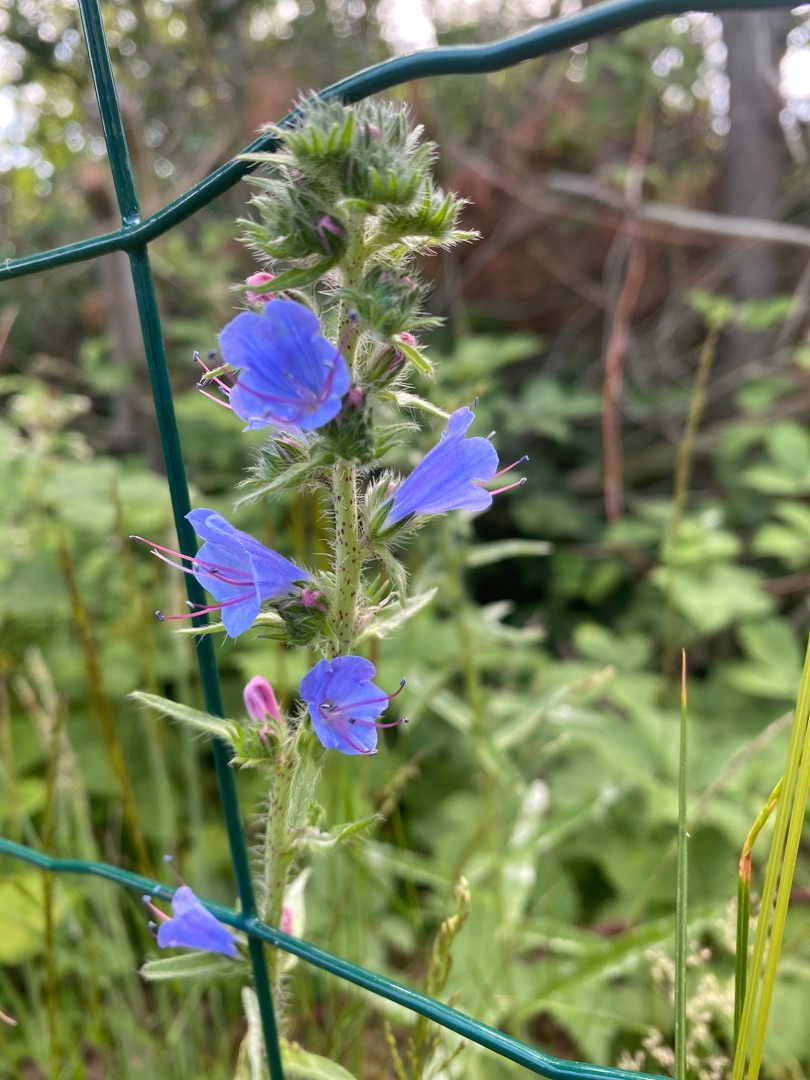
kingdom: Plantae
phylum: Tracheophyta
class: Magnoliopsida
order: Boraginales
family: Boraginaceae
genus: Echium
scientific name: Echium vulgare
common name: Slangehoved
